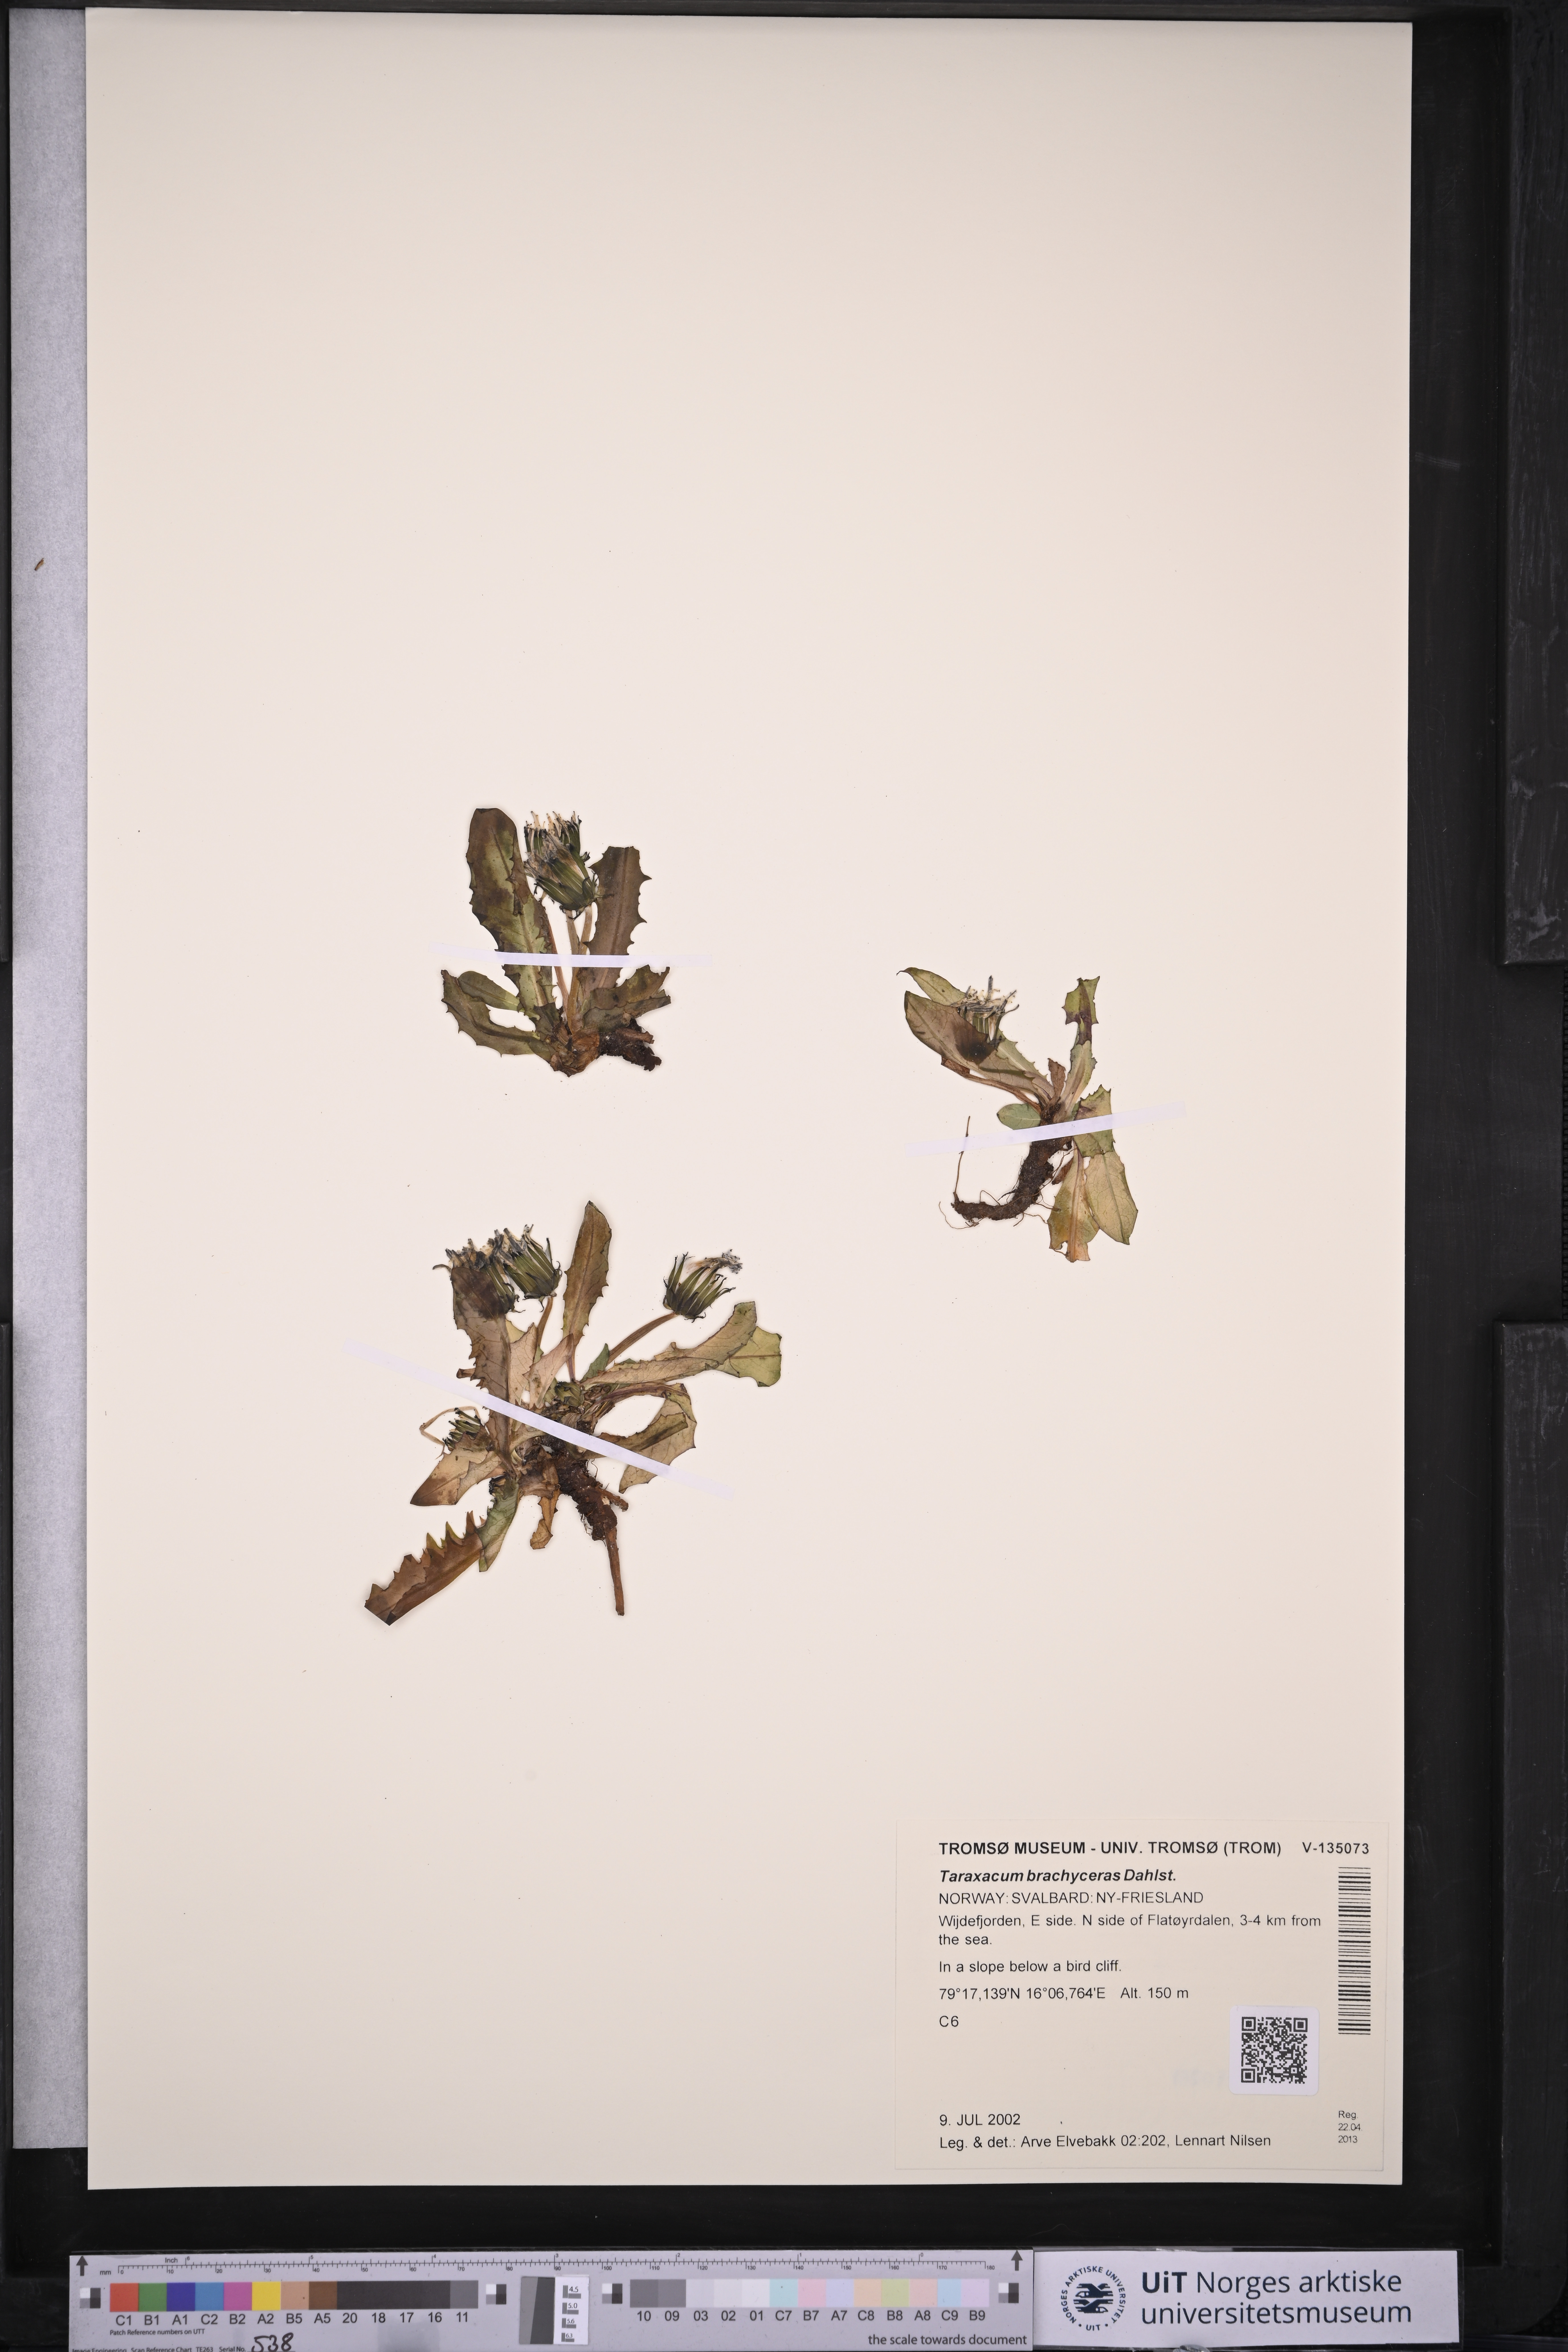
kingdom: Plantae
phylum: Tracheophyta
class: Magnoliopsida
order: Asterales
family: Asteraceae
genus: Taraxacum
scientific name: Taraxacum brachyceras
